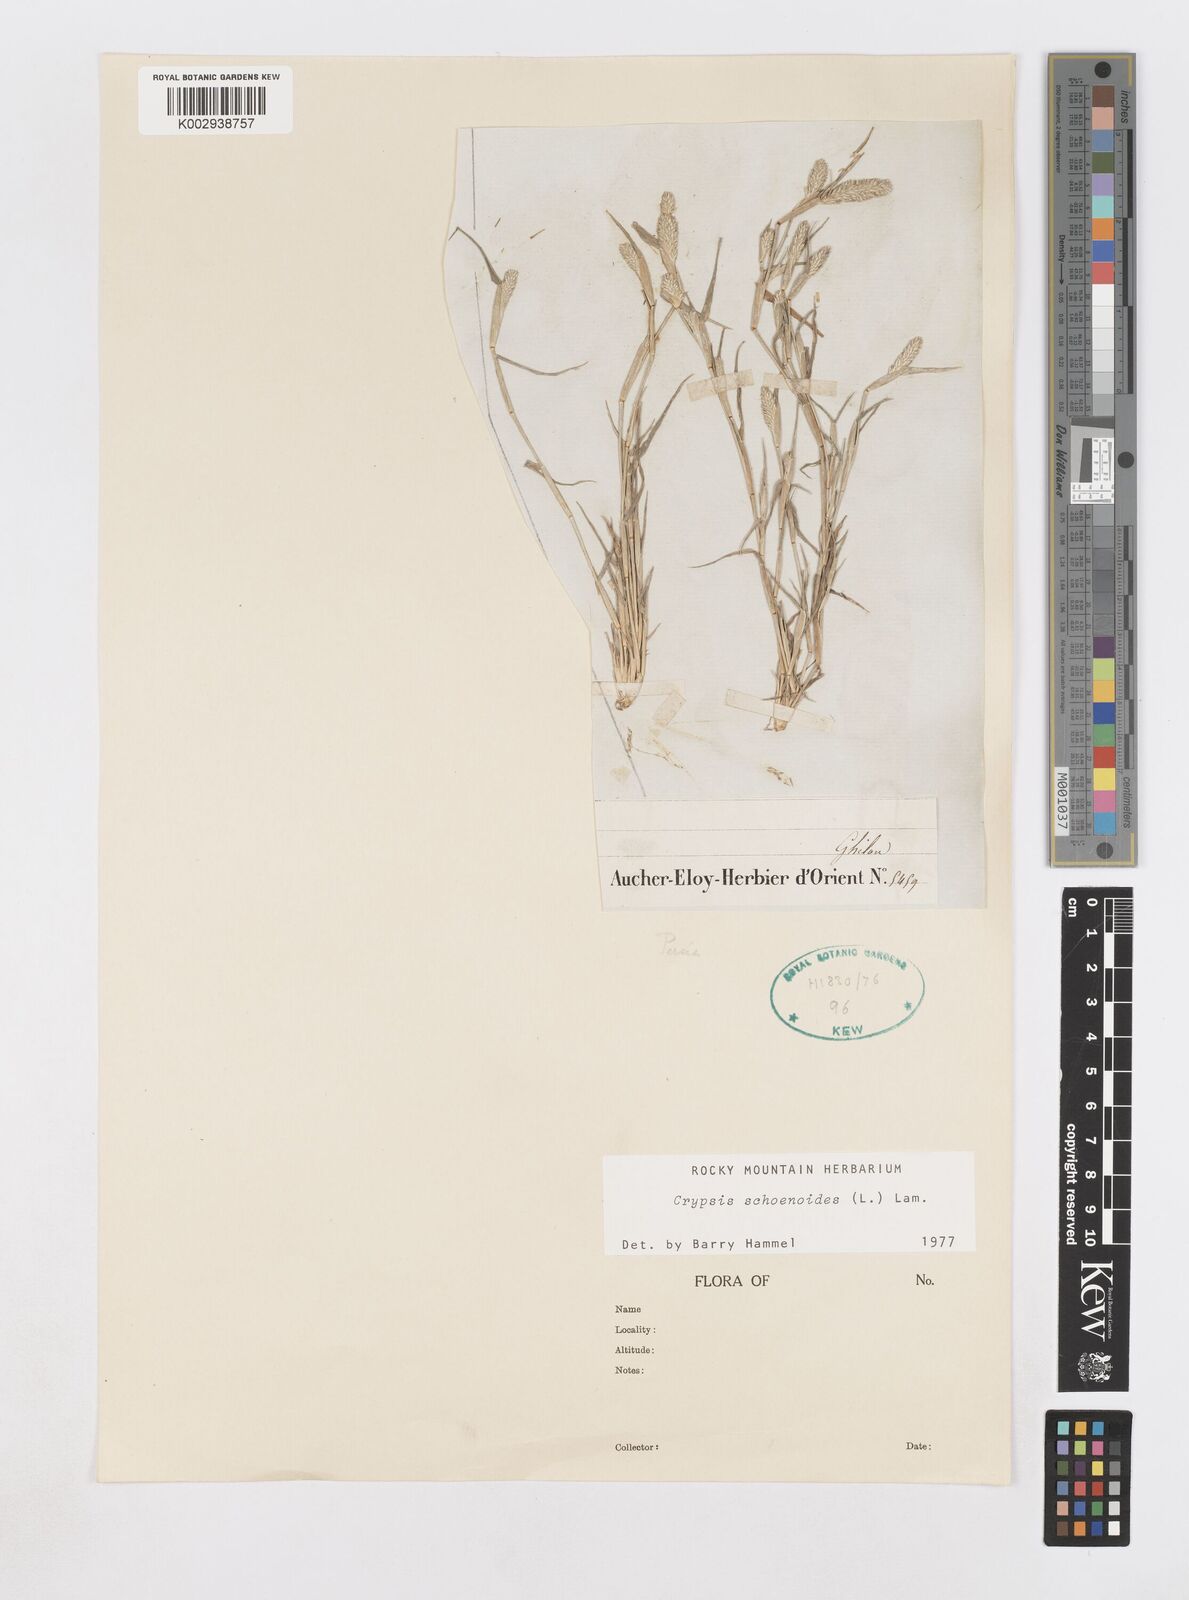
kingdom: Plantae
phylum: Tracheophyta
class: Liliopsida
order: Poales
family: Poaceae
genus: Sporobolus
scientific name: Sporobolus schoenoides
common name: Rush-like timothy
